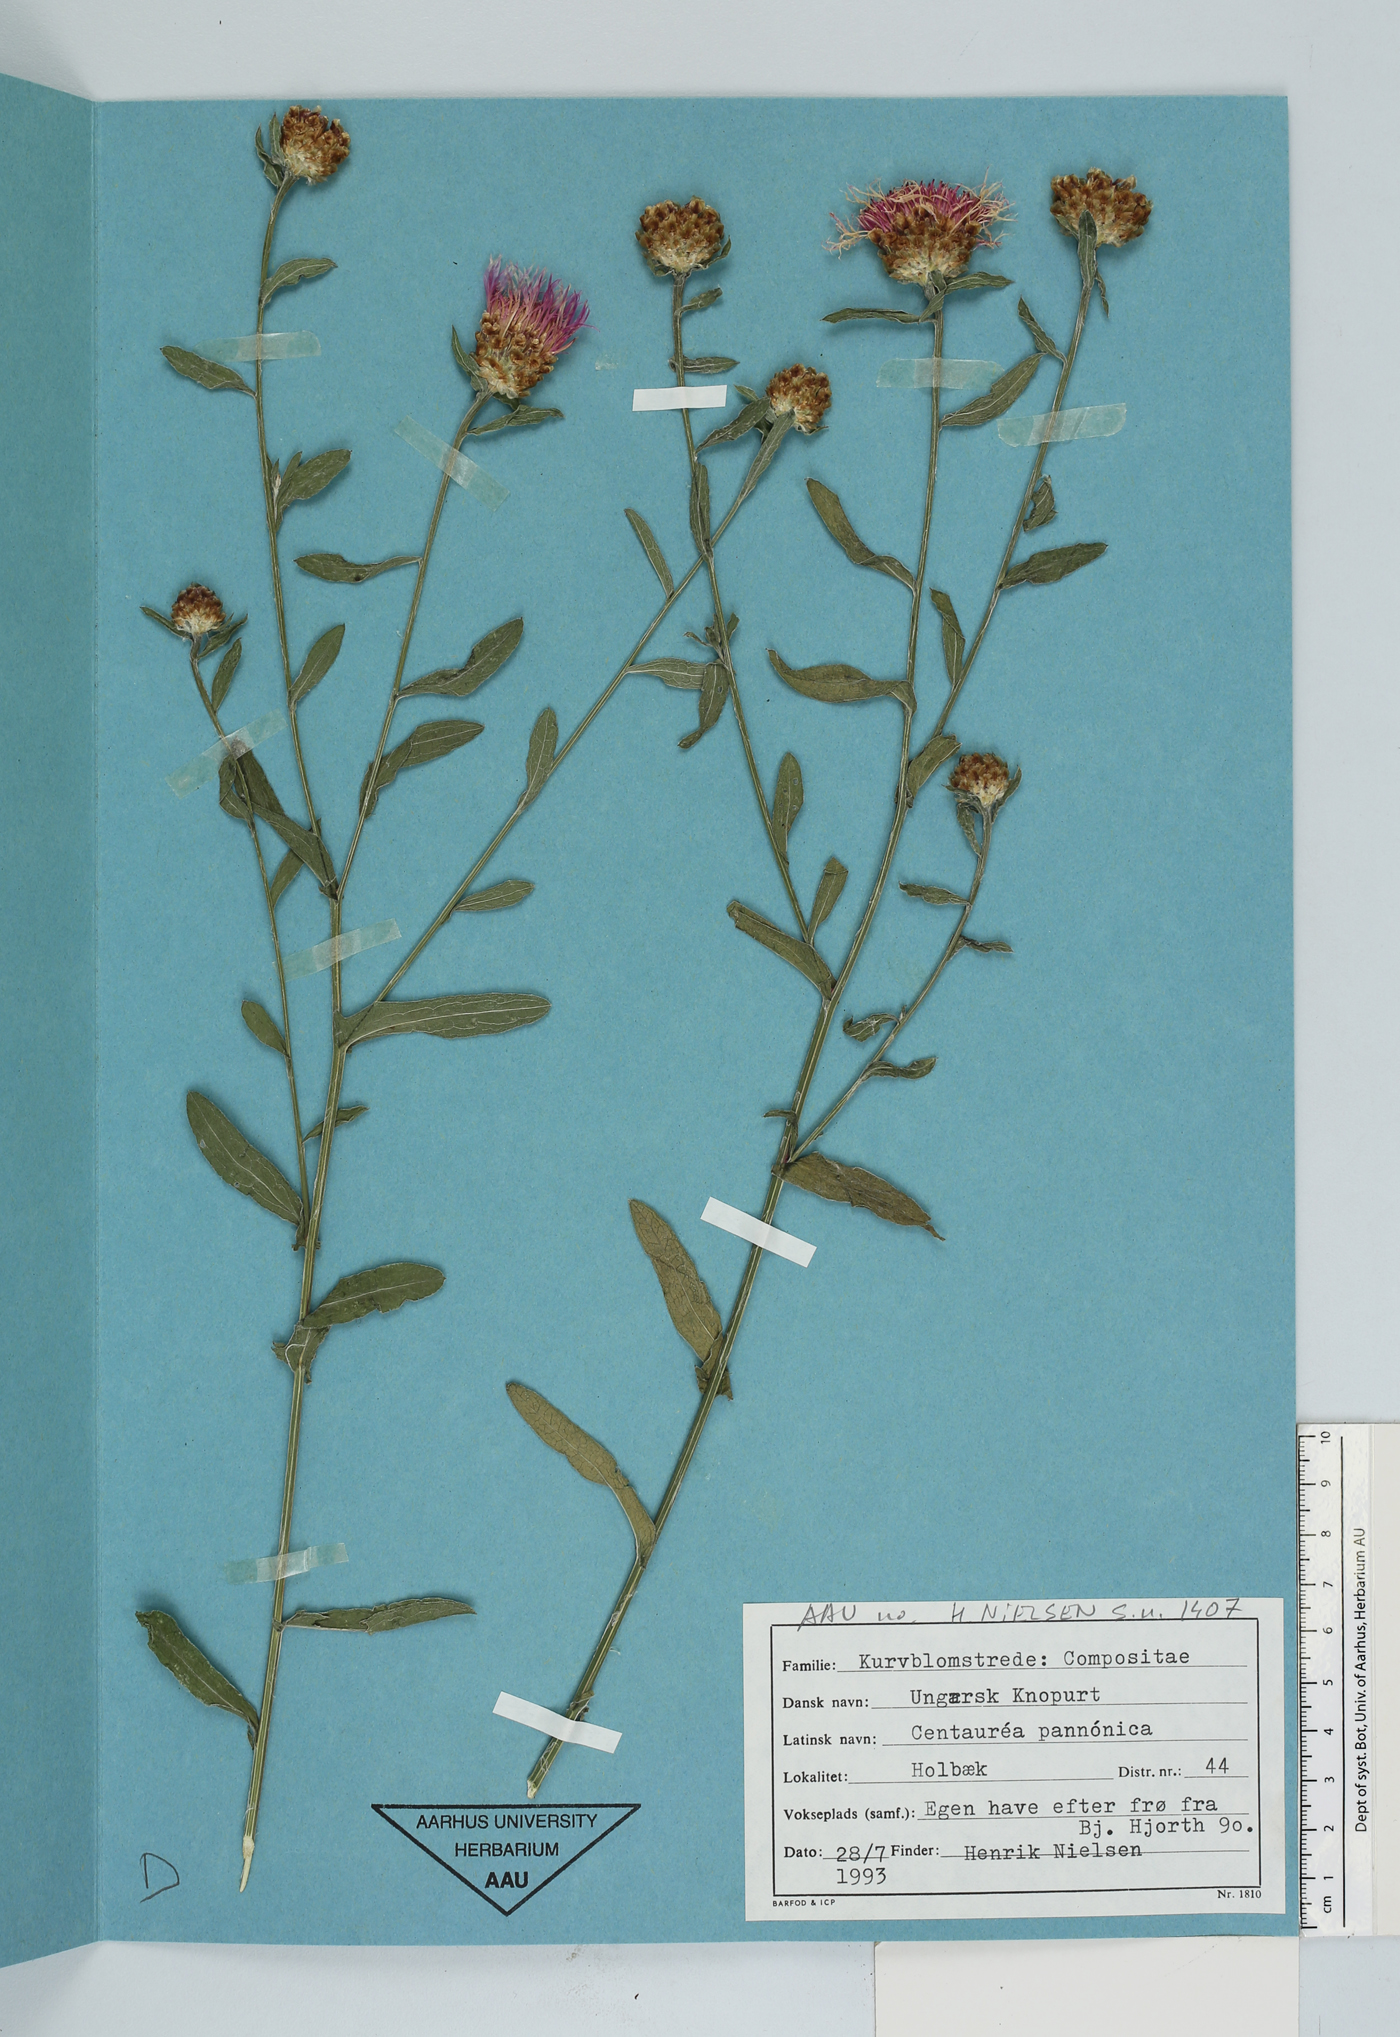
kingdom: Plantae
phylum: Tracheophyta
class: Magnoliopsida
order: Asterales
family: Asteraceae
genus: Centaurea
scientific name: Centaurea pannonica
